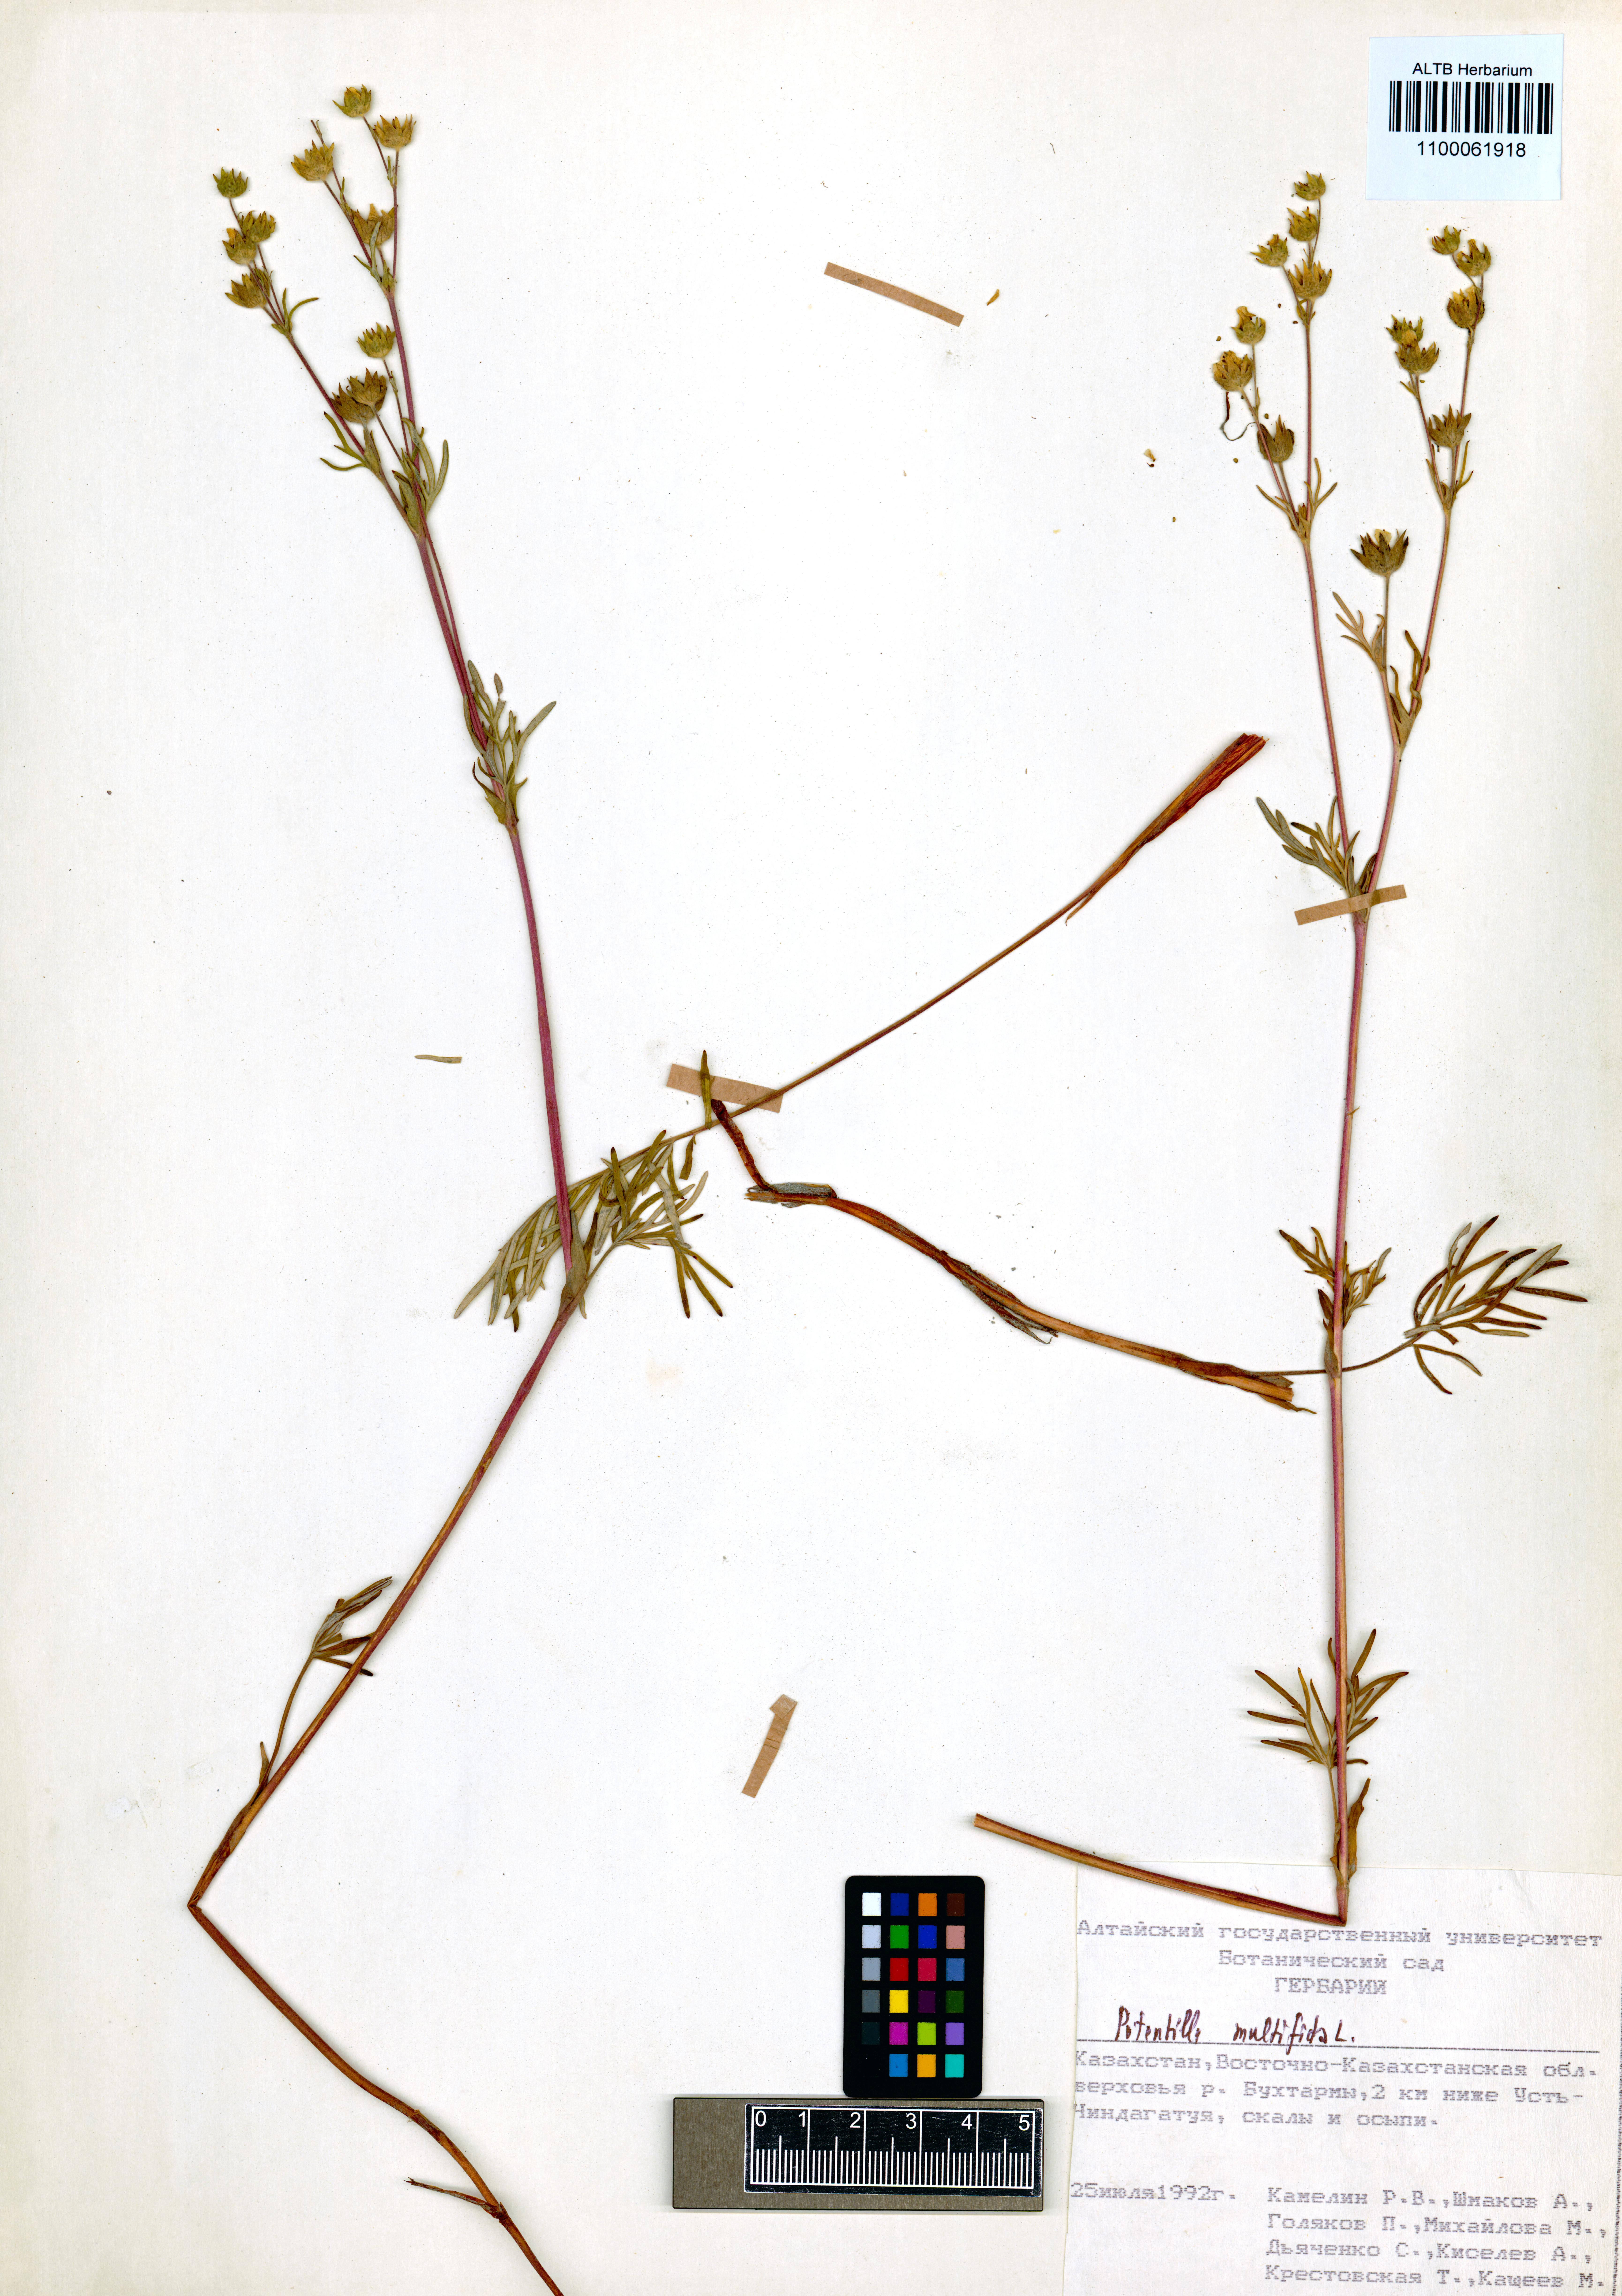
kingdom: Plantae
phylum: Tracheophyta
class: Magnoliopsida
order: Rosales
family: Rosaceae
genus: Potentilla
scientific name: Potentilla multifida
